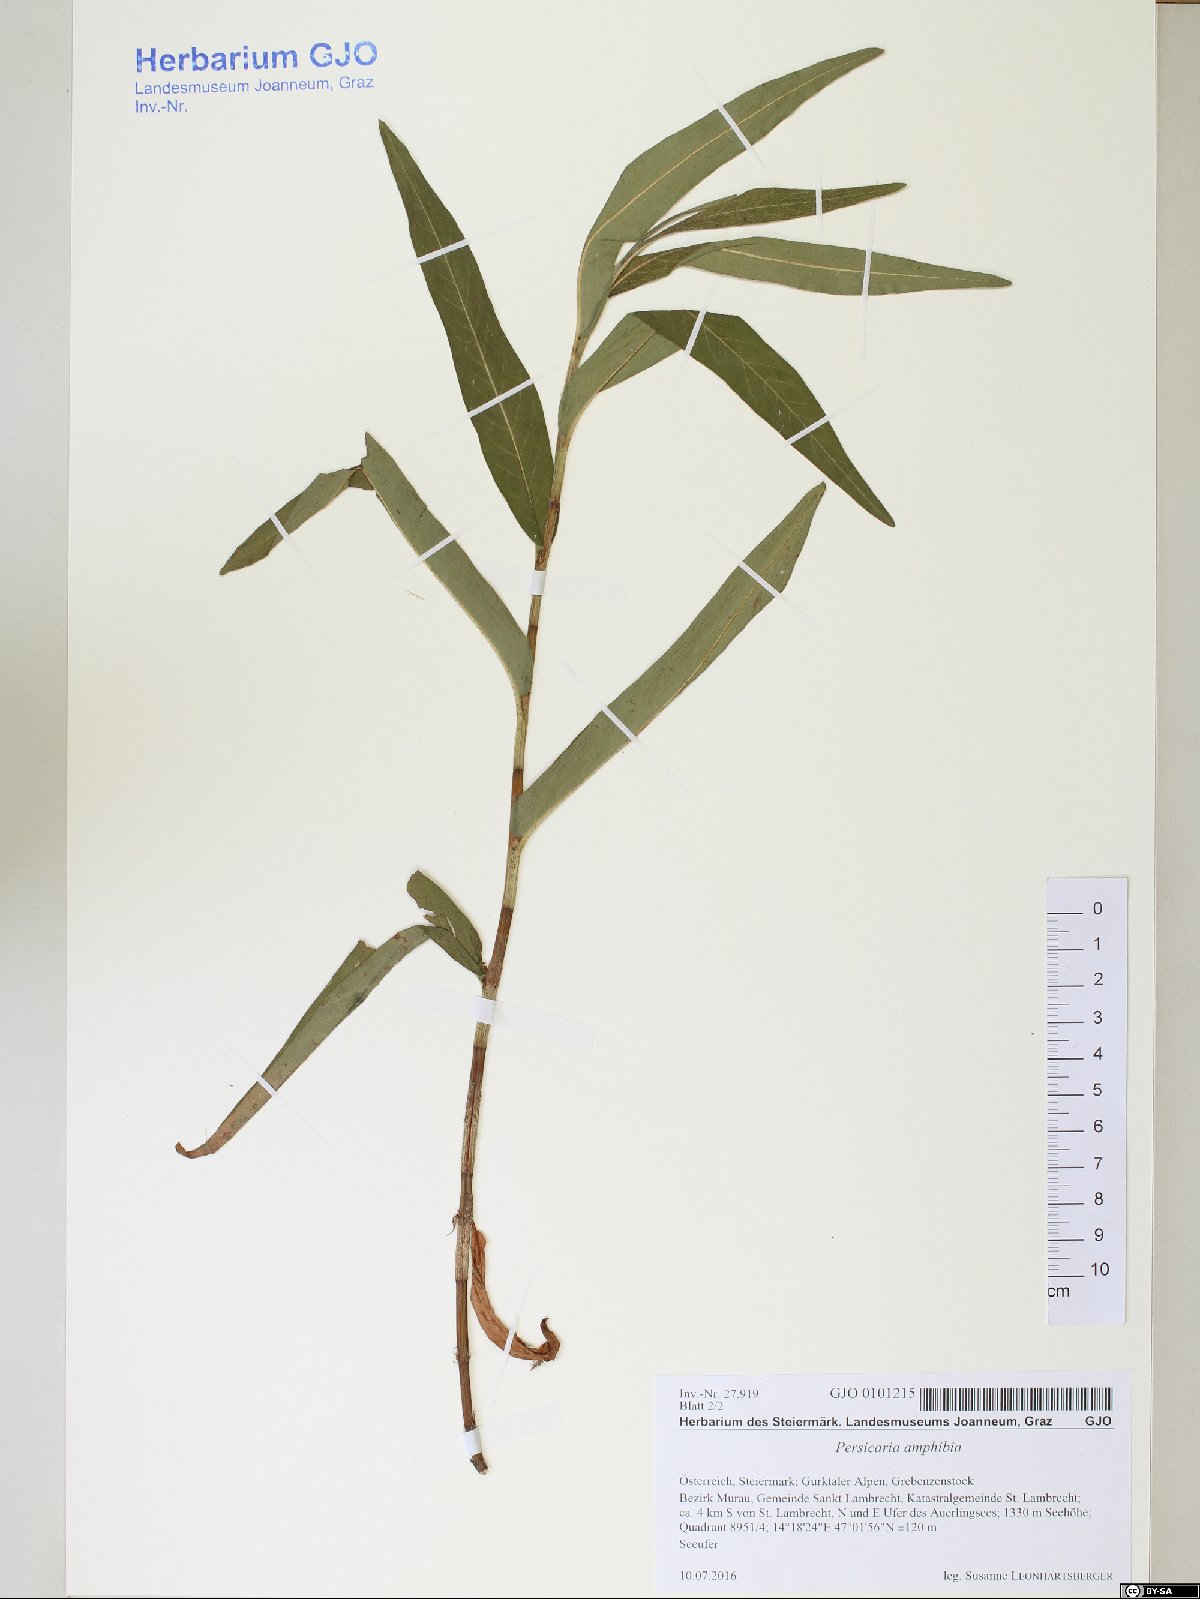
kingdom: Plantae
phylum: Tracheophyta
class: Magnoliopsida
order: Caryophyllales
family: Polygonaceae
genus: Persicaria
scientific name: Persicaria amphibia
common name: Amphibious bistort
